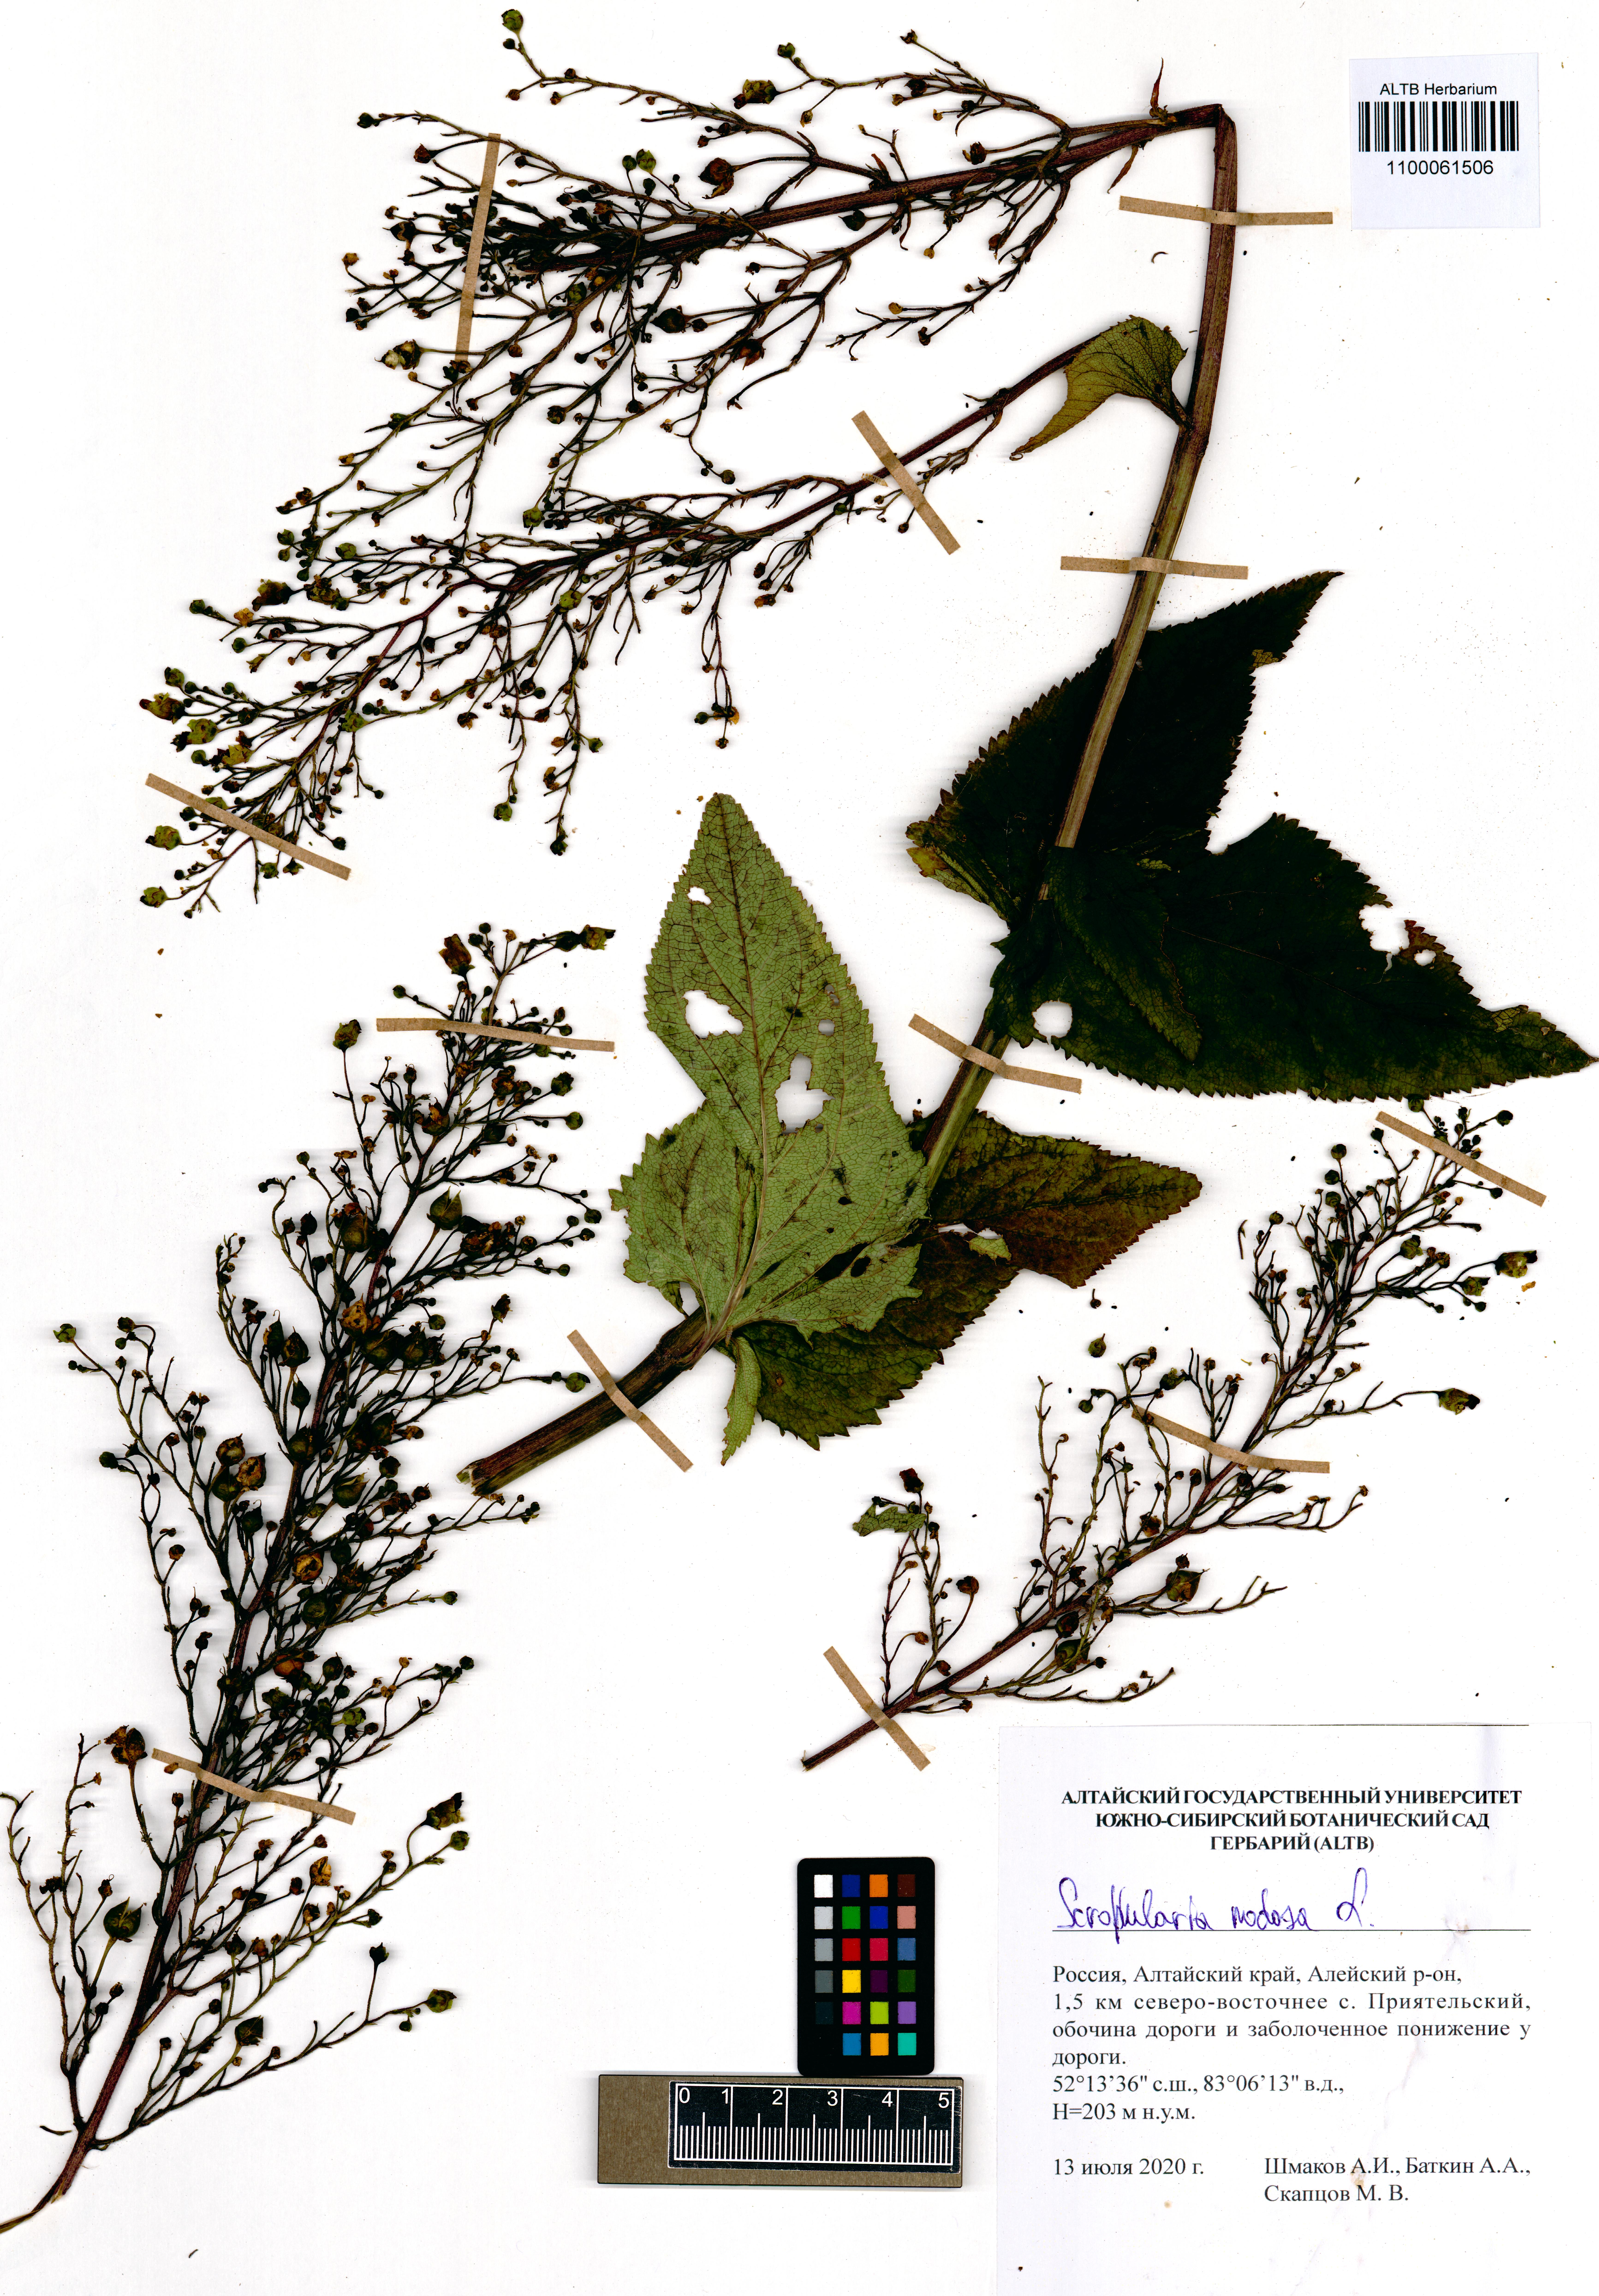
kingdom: Plantae
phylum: Tracheophyta
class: Magnoliopsida
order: Lamiales
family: Scrophulariaceae
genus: Scrophularia
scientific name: Scrophularia nodosa
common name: Common figwort
